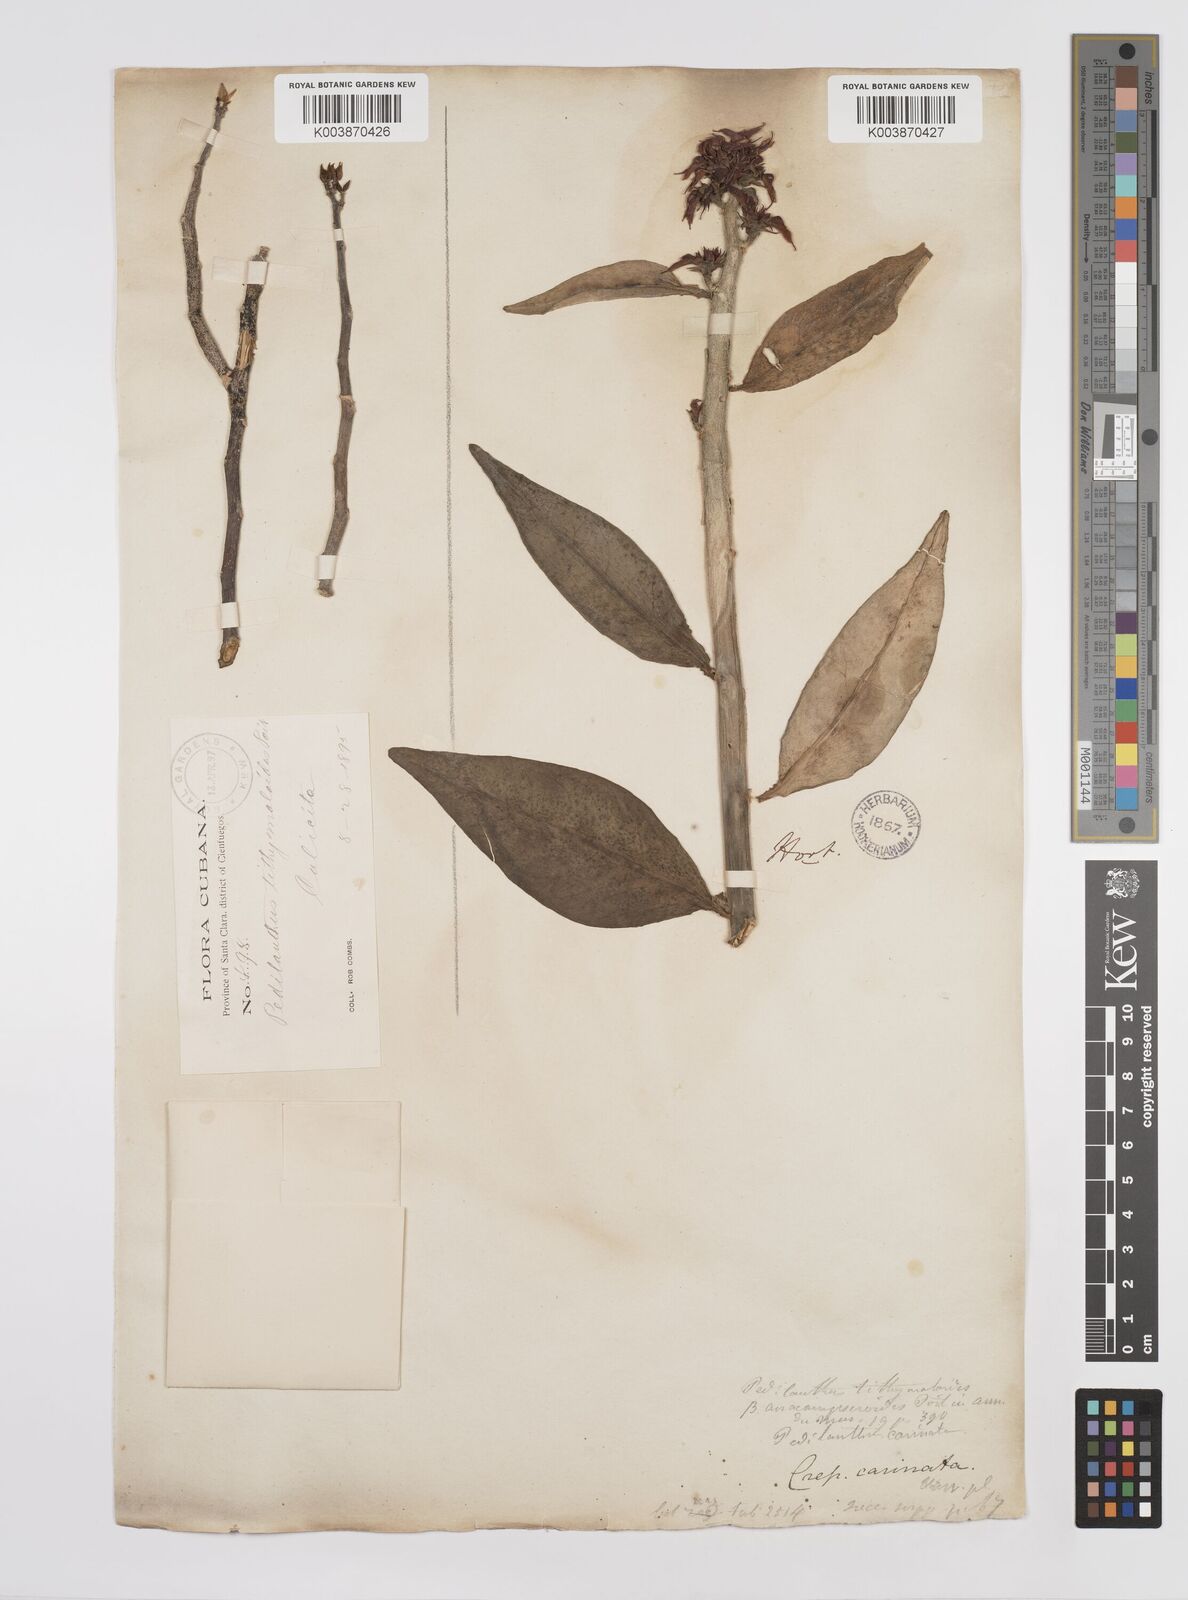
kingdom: Plantae
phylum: Tracheophyta
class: Magnoliopsida
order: Malpighiales
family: Euphorbiaceae
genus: Euphorbia
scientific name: Euphorbia tithymaloides
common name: Slipperplant
